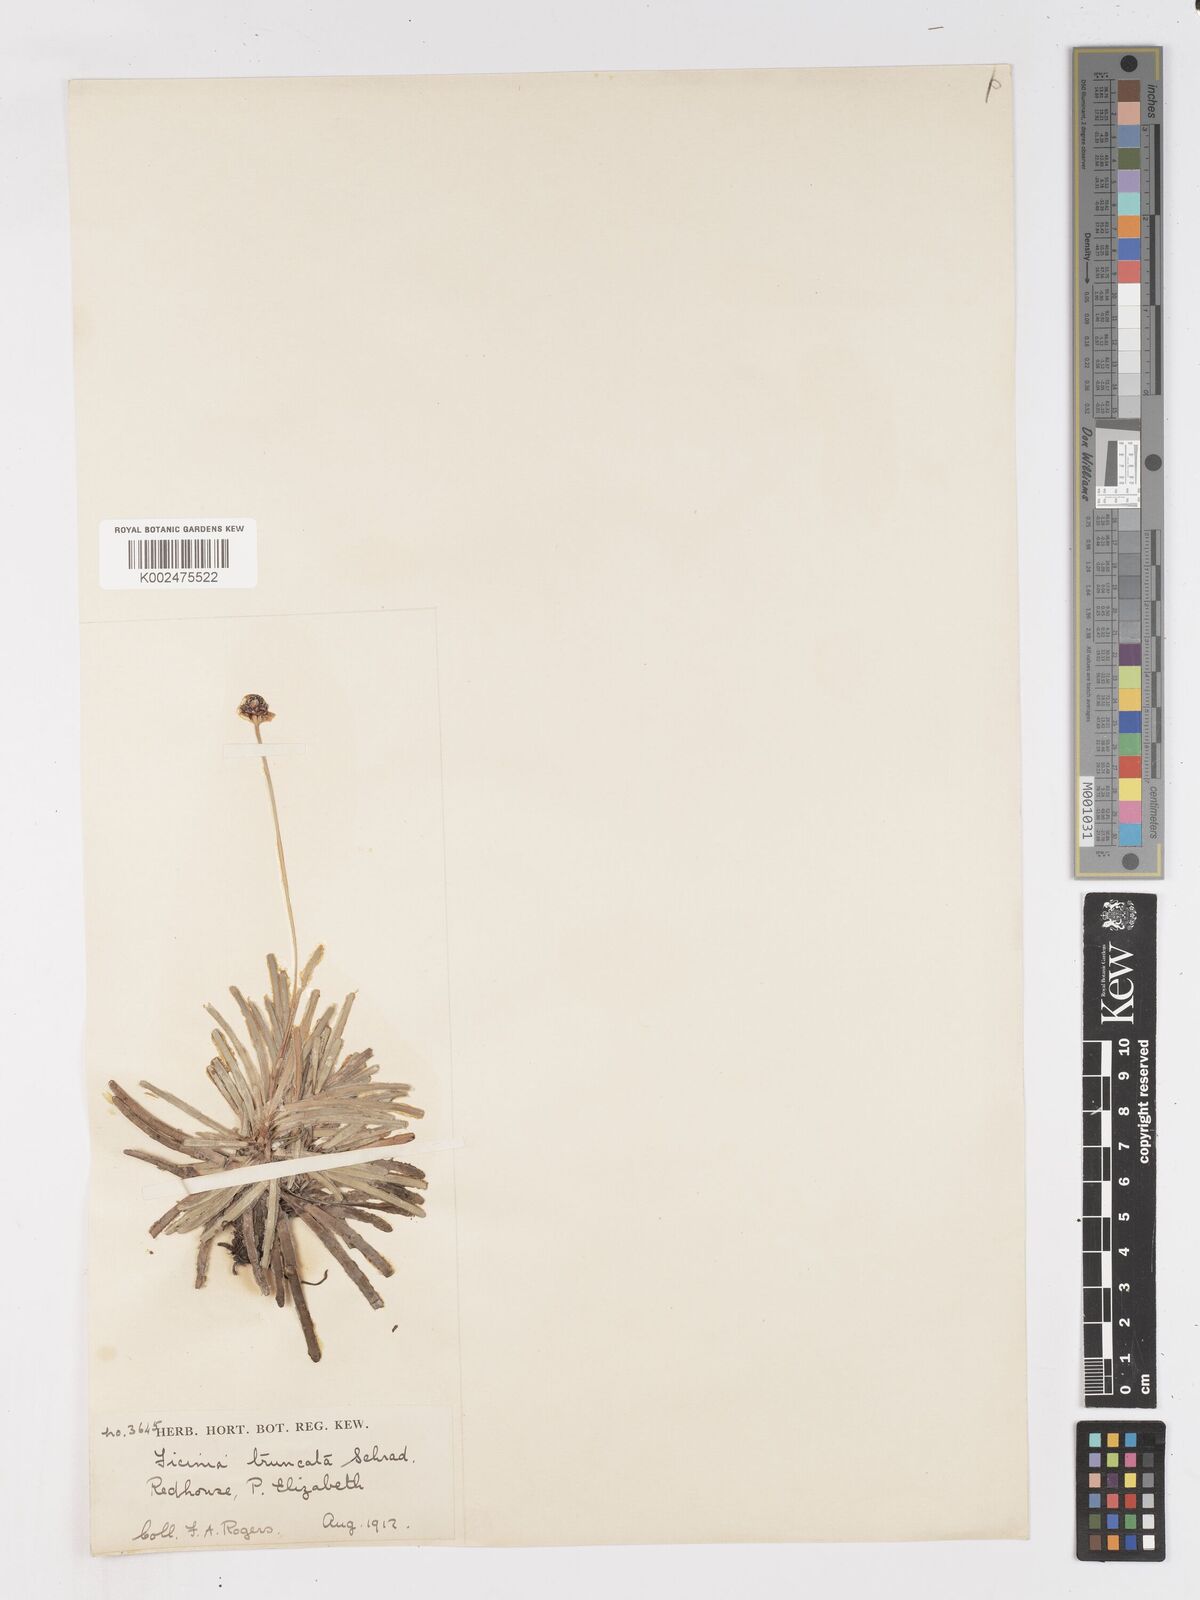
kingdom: Plantae
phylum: Tracheophyta
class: Liliopsida
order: Poales
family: Cyperaceae
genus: Ficinia
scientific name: Ficinia truncata
